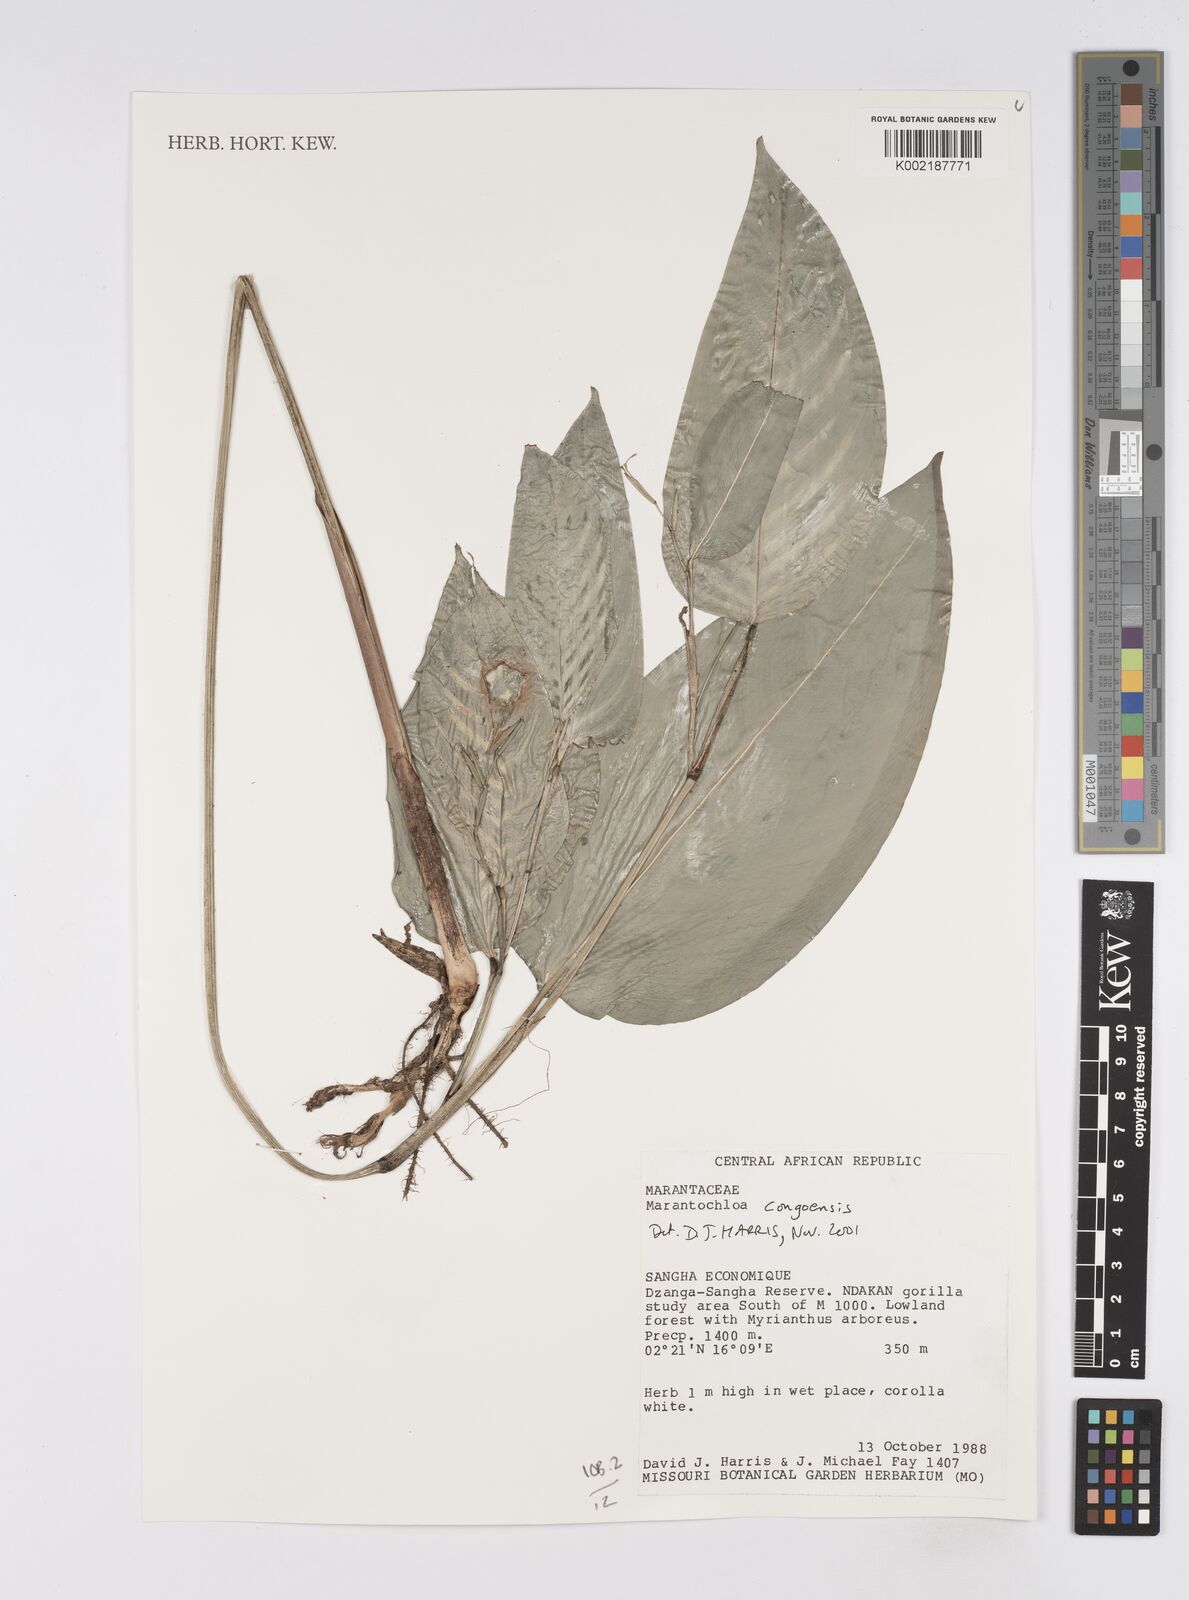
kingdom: Plantae
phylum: Tracheophyta
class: Liliopsida
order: Zingiberales
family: Marantaceae
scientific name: Marantaceae
